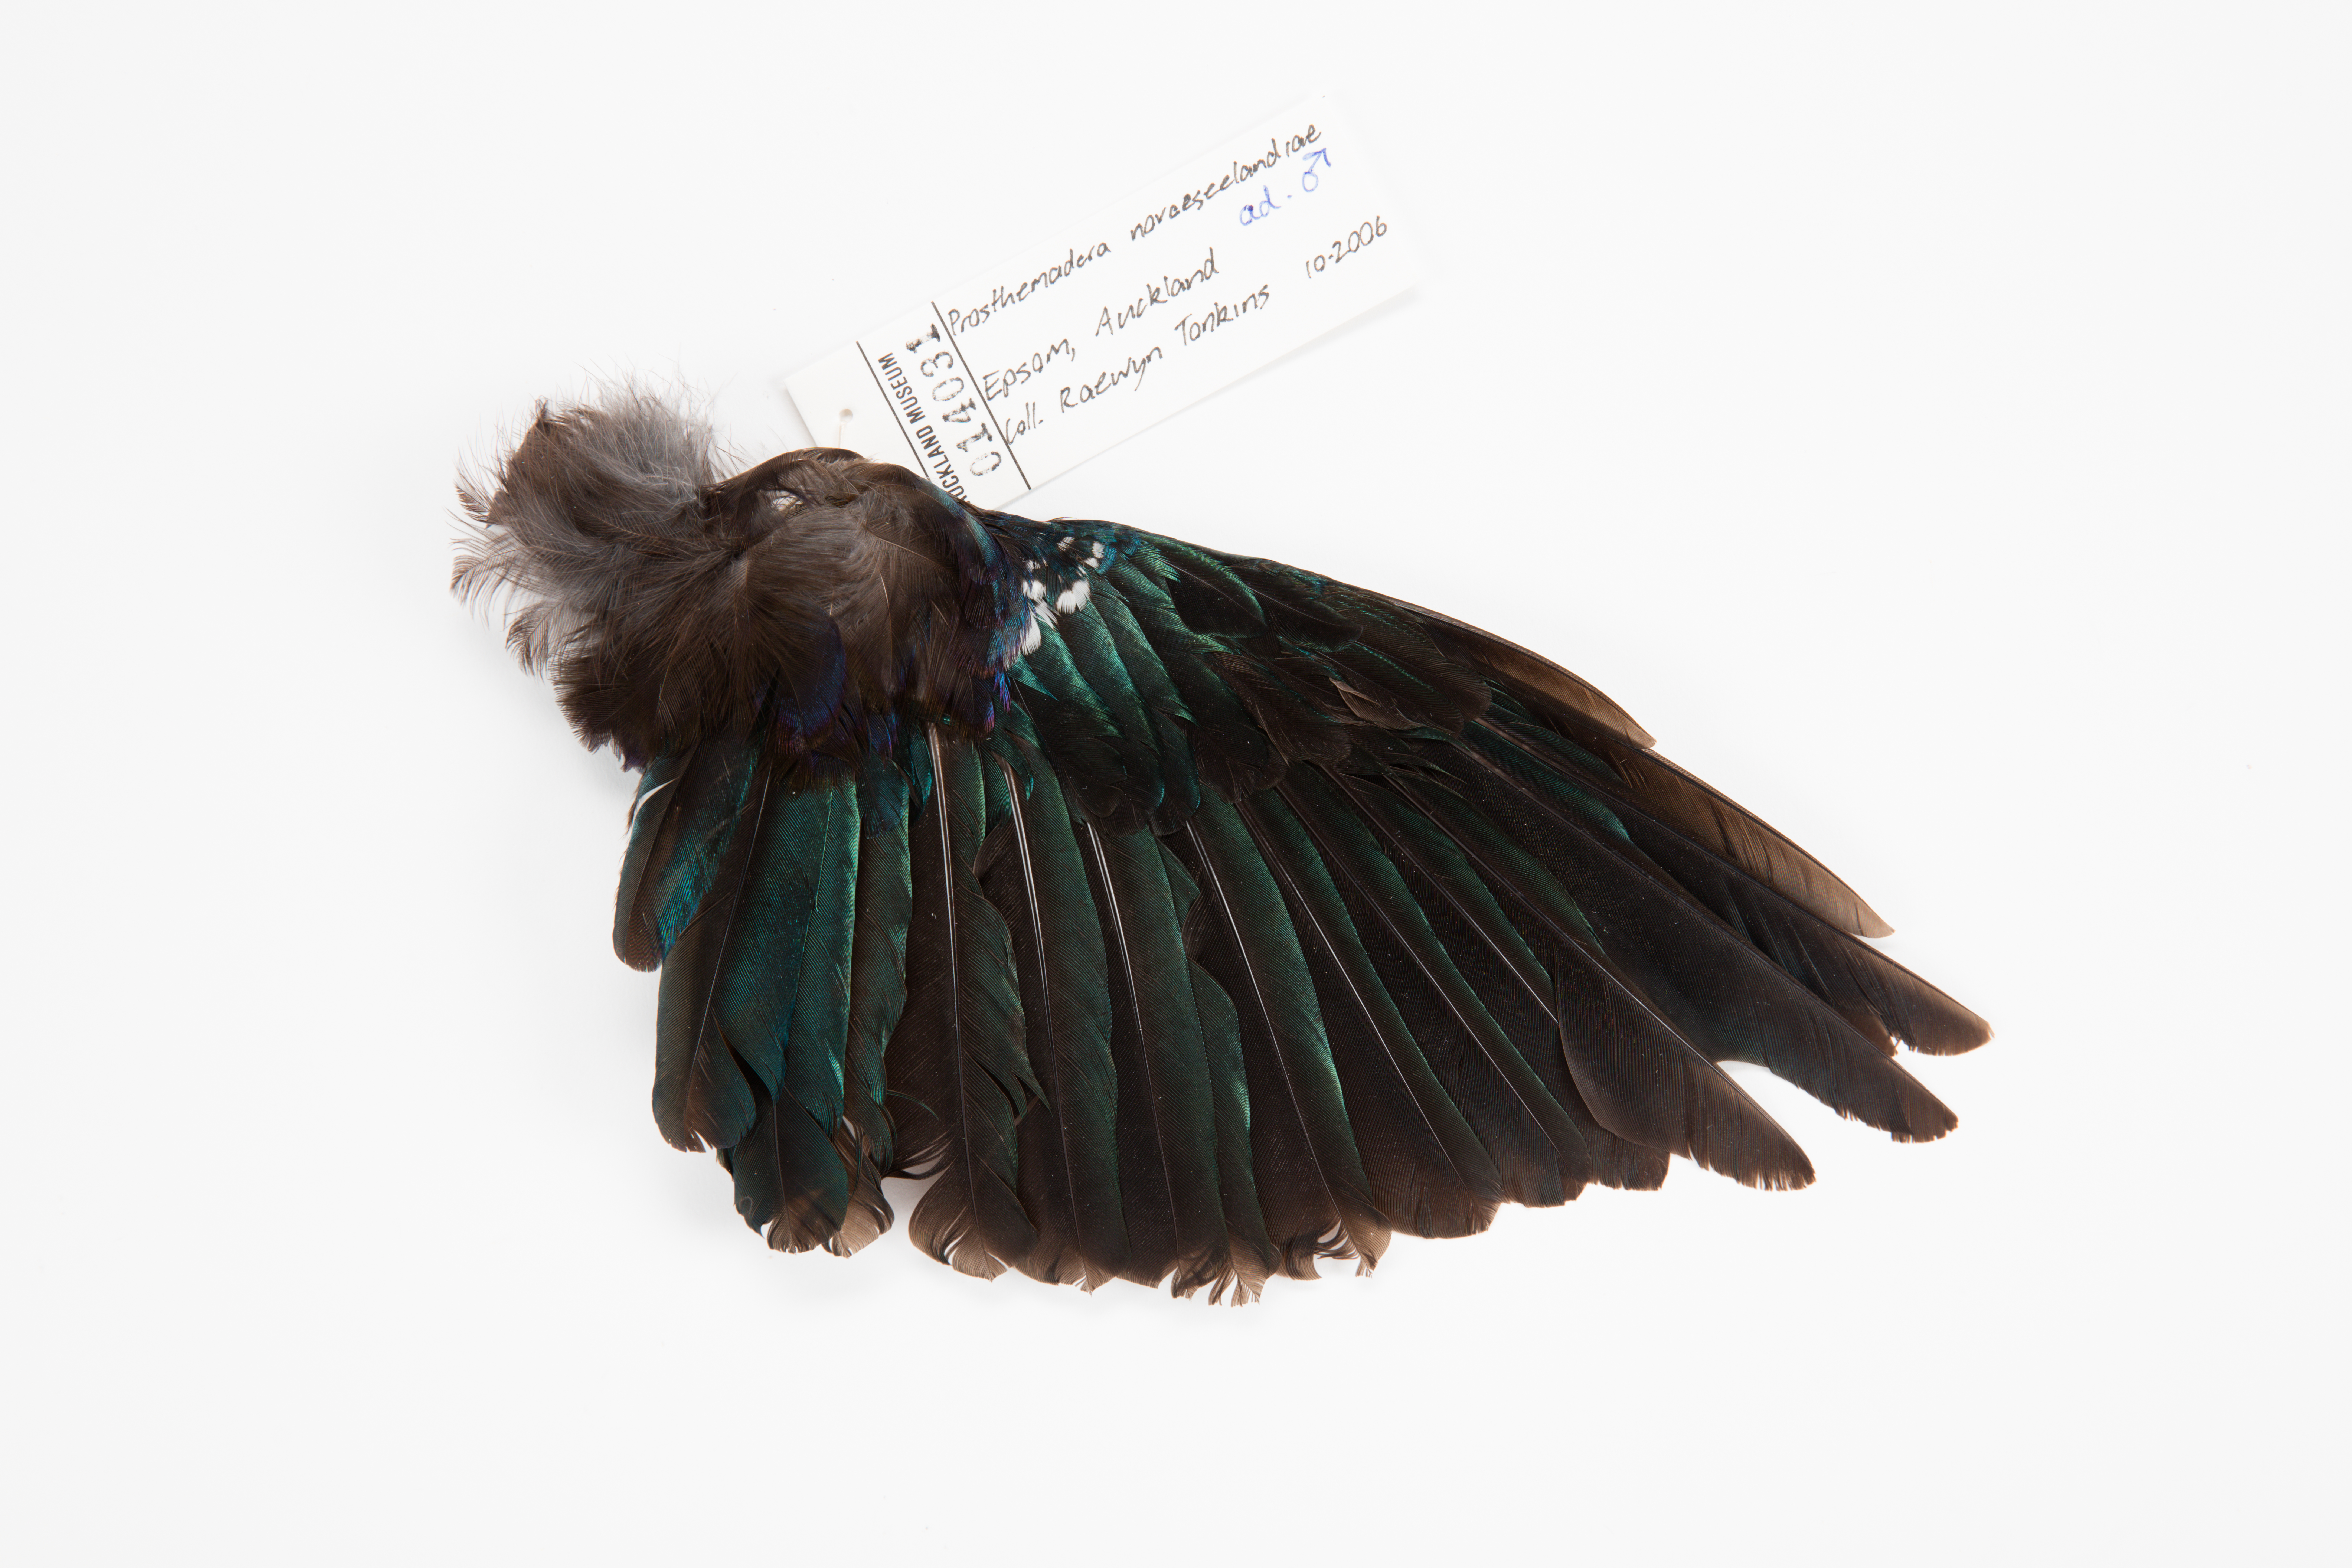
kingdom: Animalia
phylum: Chordata
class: Aves
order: Passeriformes
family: Meliphagidae
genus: Prosthemadera
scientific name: Prosthemadera novaeseelandiae
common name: Tui
